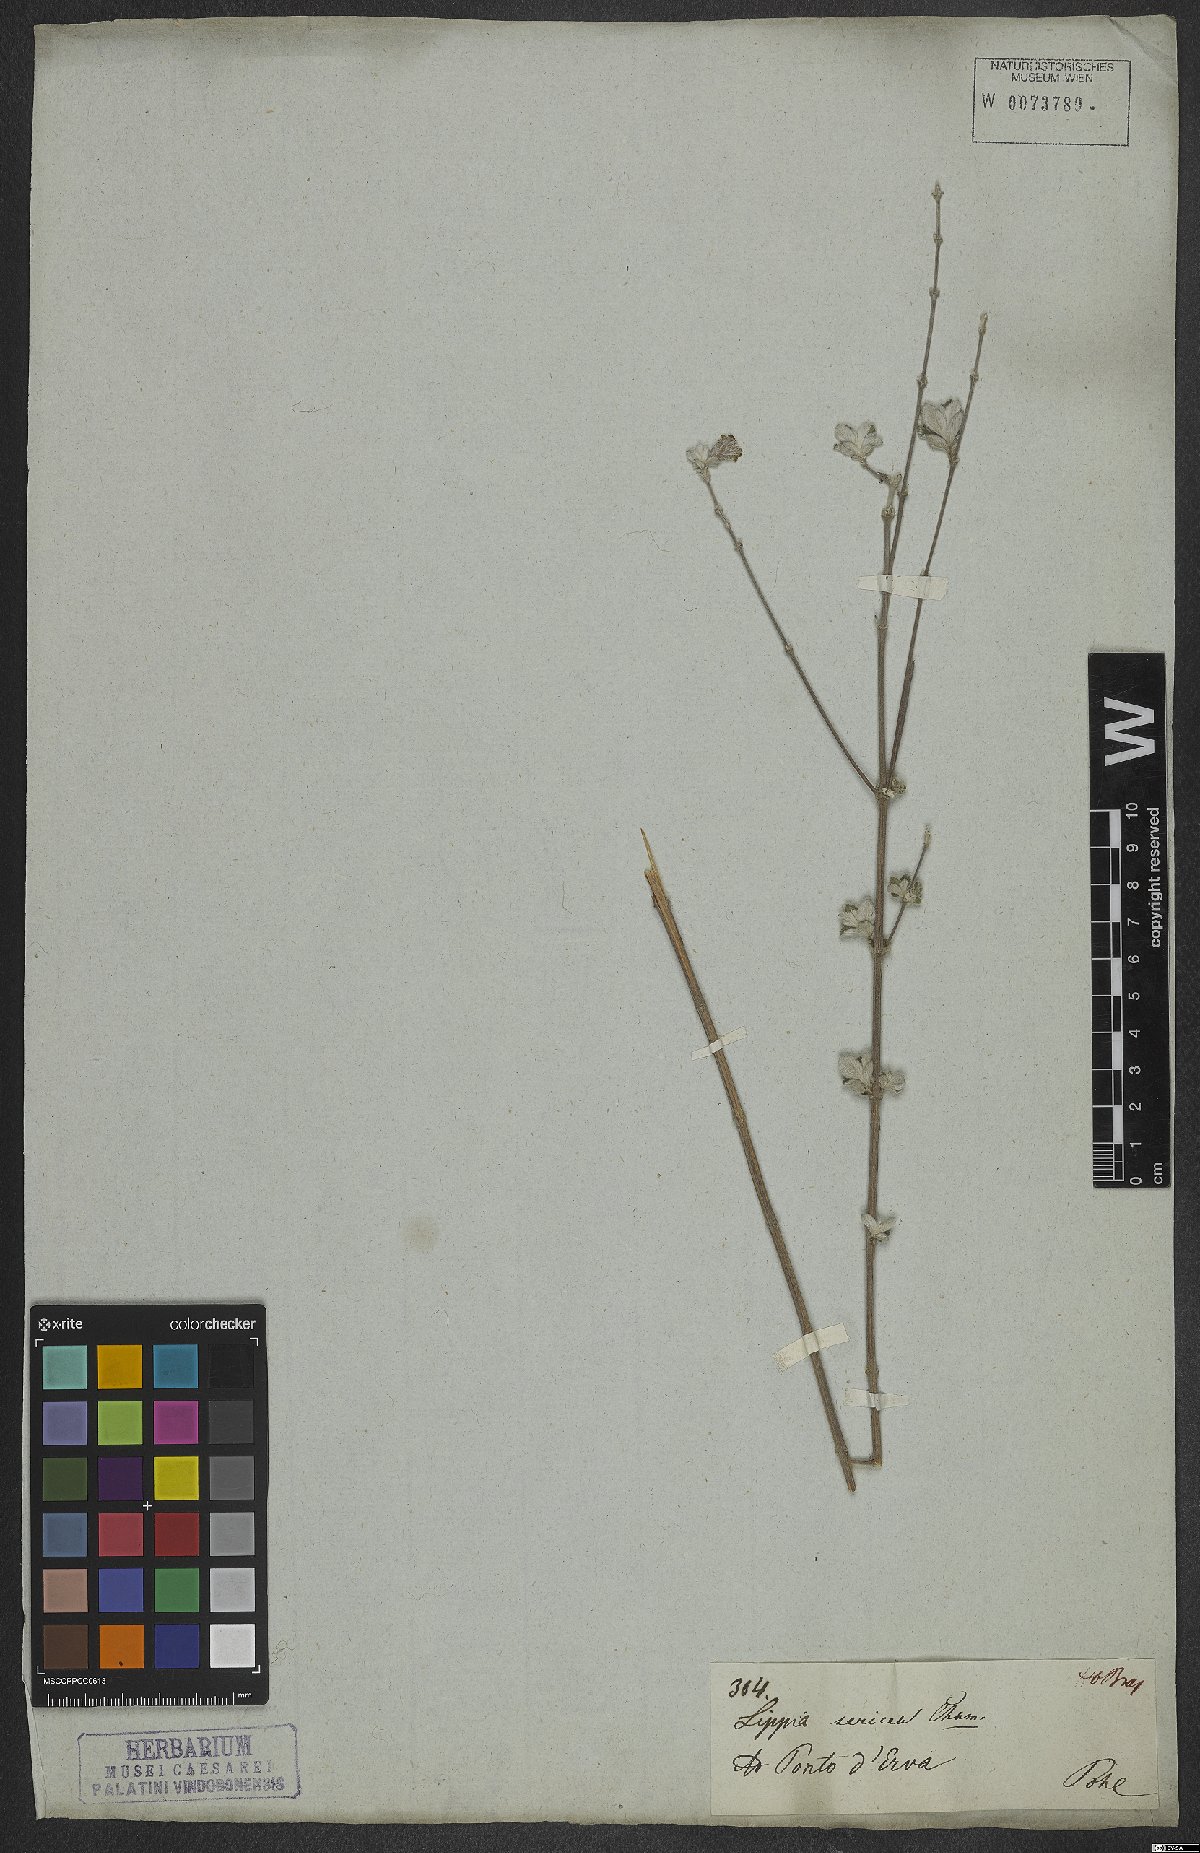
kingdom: Plantae
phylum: Tracheophyta
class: Magnoliopsida
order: Lamiales
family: Verbenaceae
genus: Lippia
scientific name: Lippia sericea
